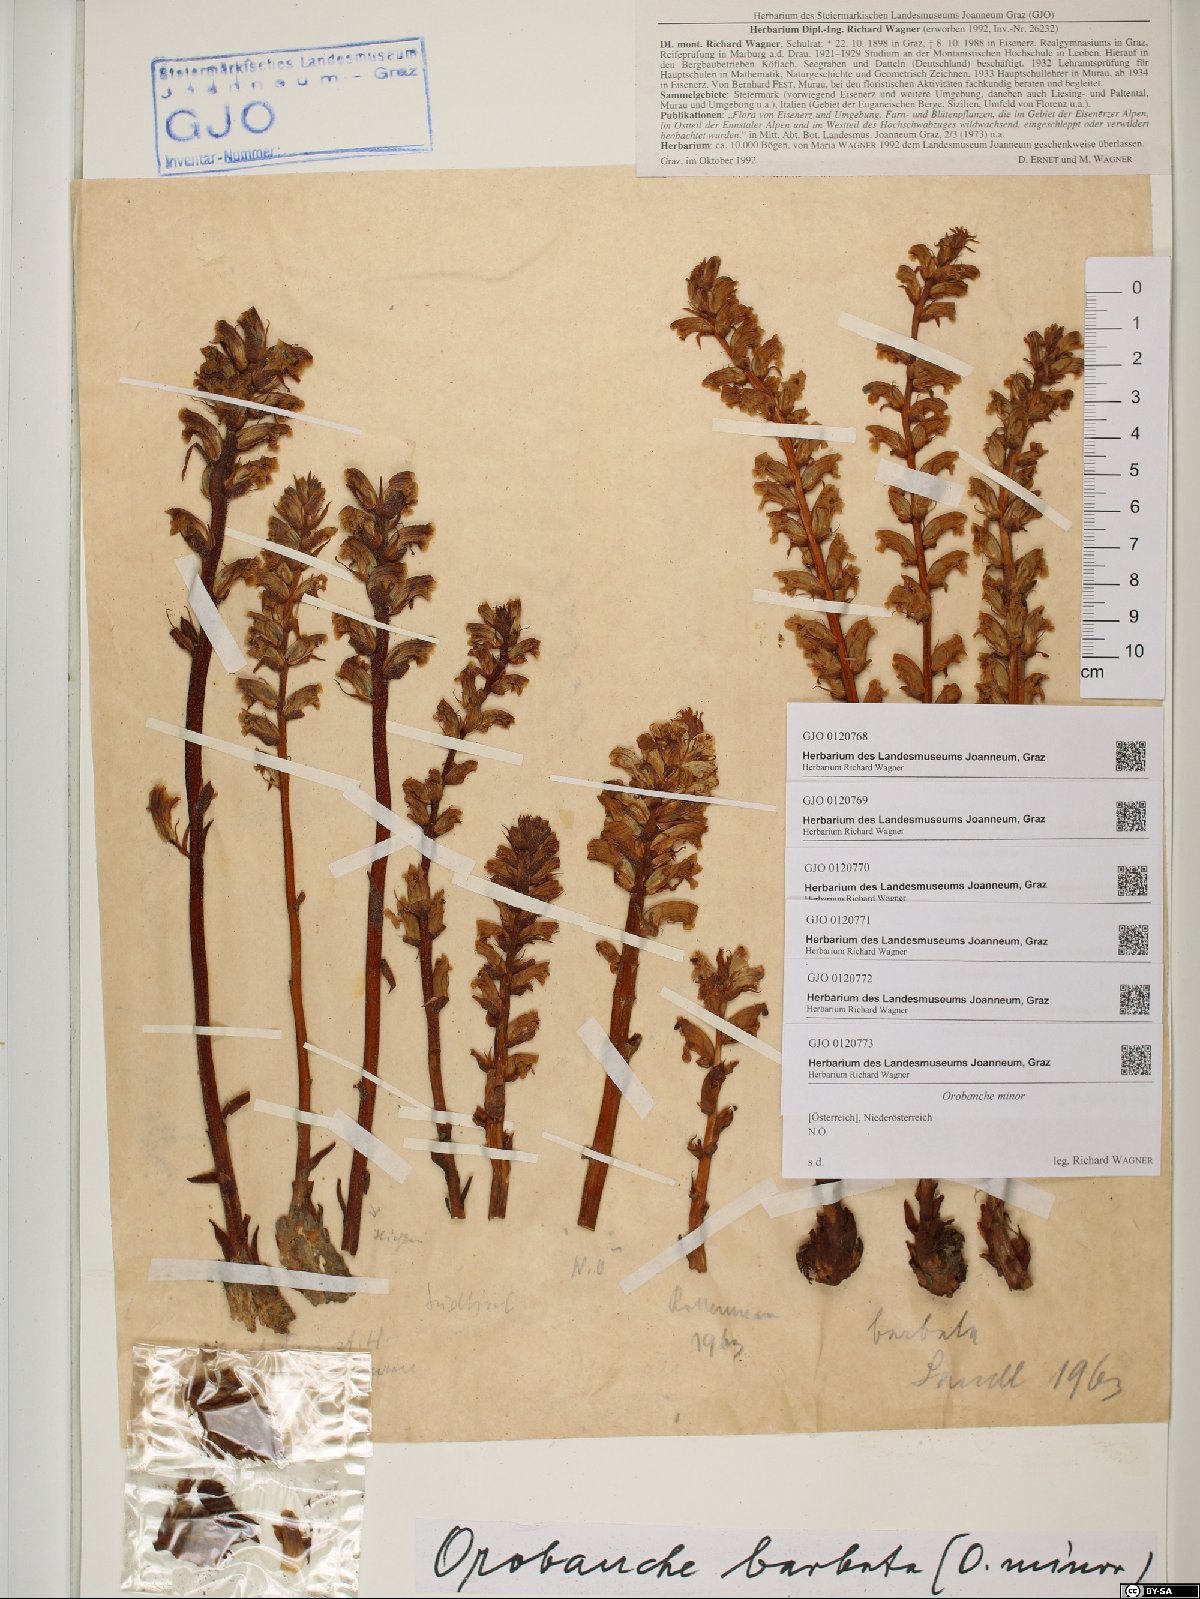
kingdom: Plantae
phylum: Tracheophyta
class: Magnoliopsida
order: Lamiales
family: Orobanchaceae
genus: Orobanche
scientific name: Orobanche minor
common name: Common broomrape
